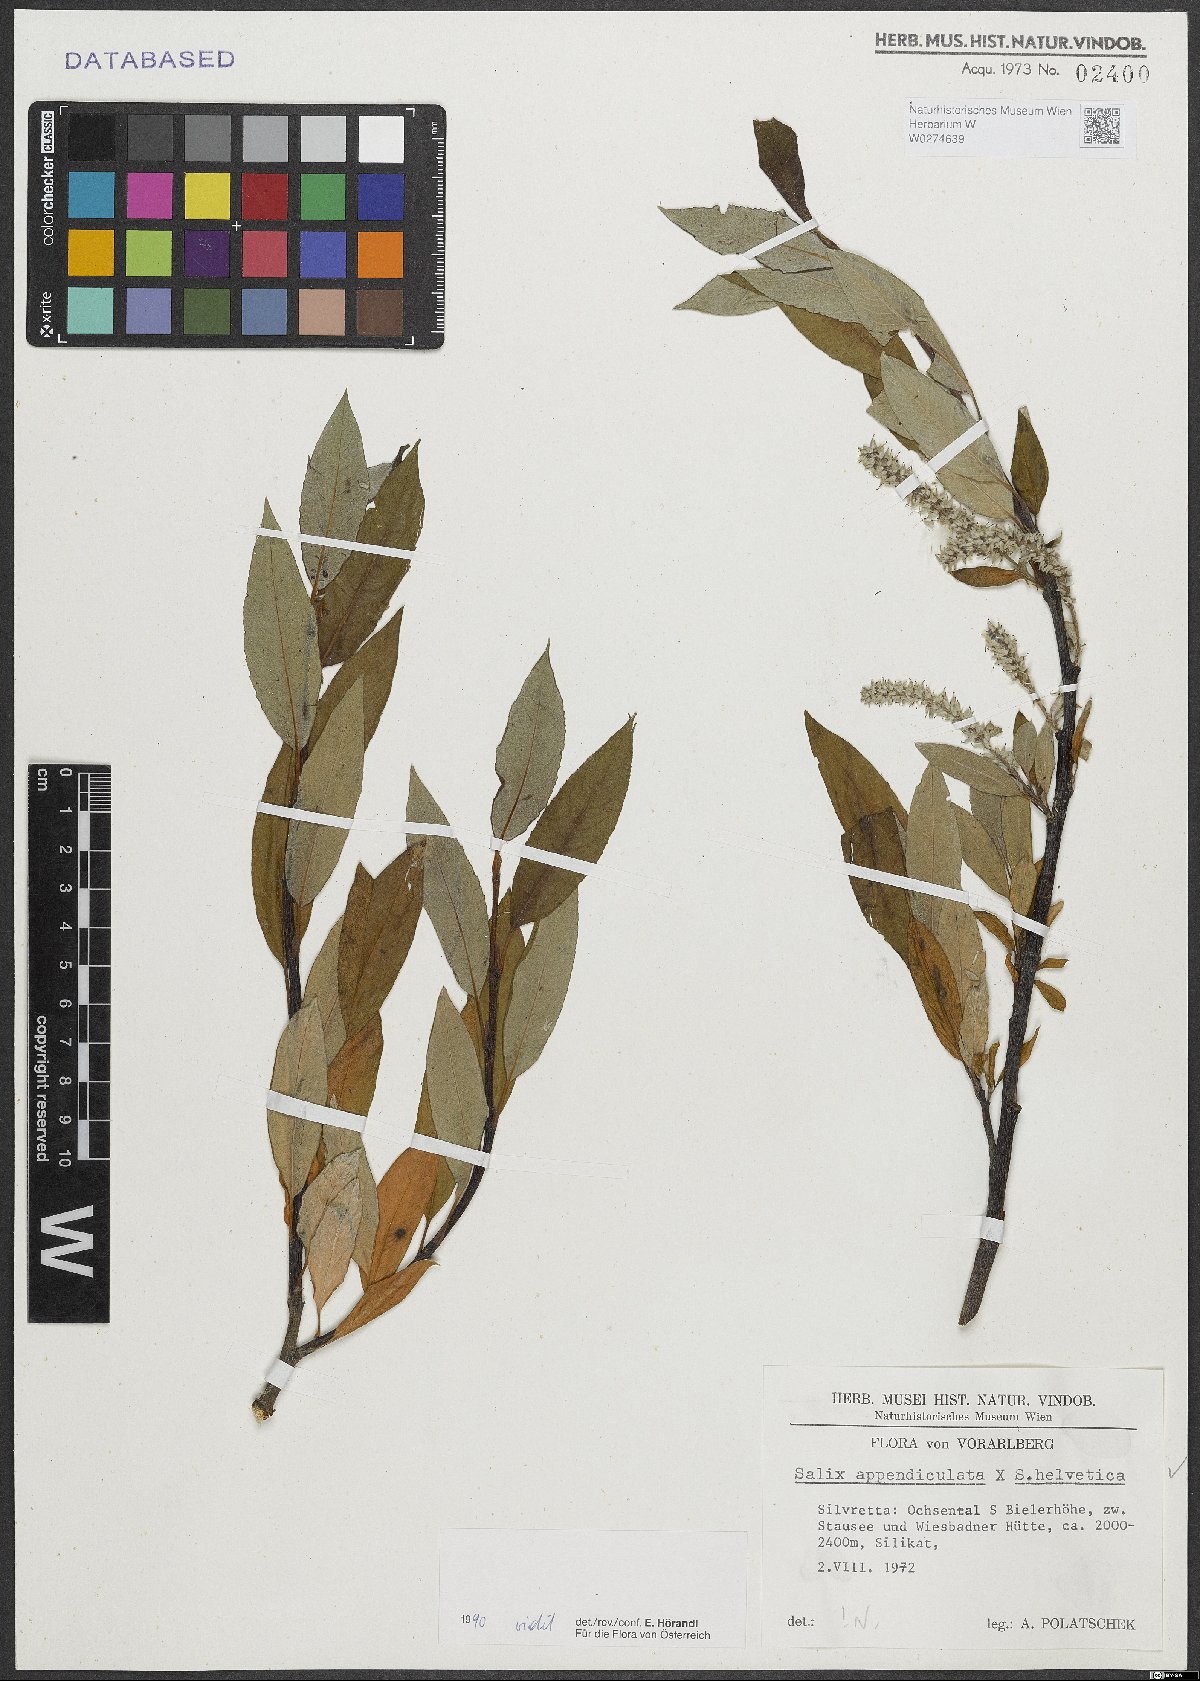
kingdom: Plantae
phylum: Tracheophyta
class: Magnoliopsida
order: Malpighiales
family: Salicaceae
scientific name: Salicaceae
